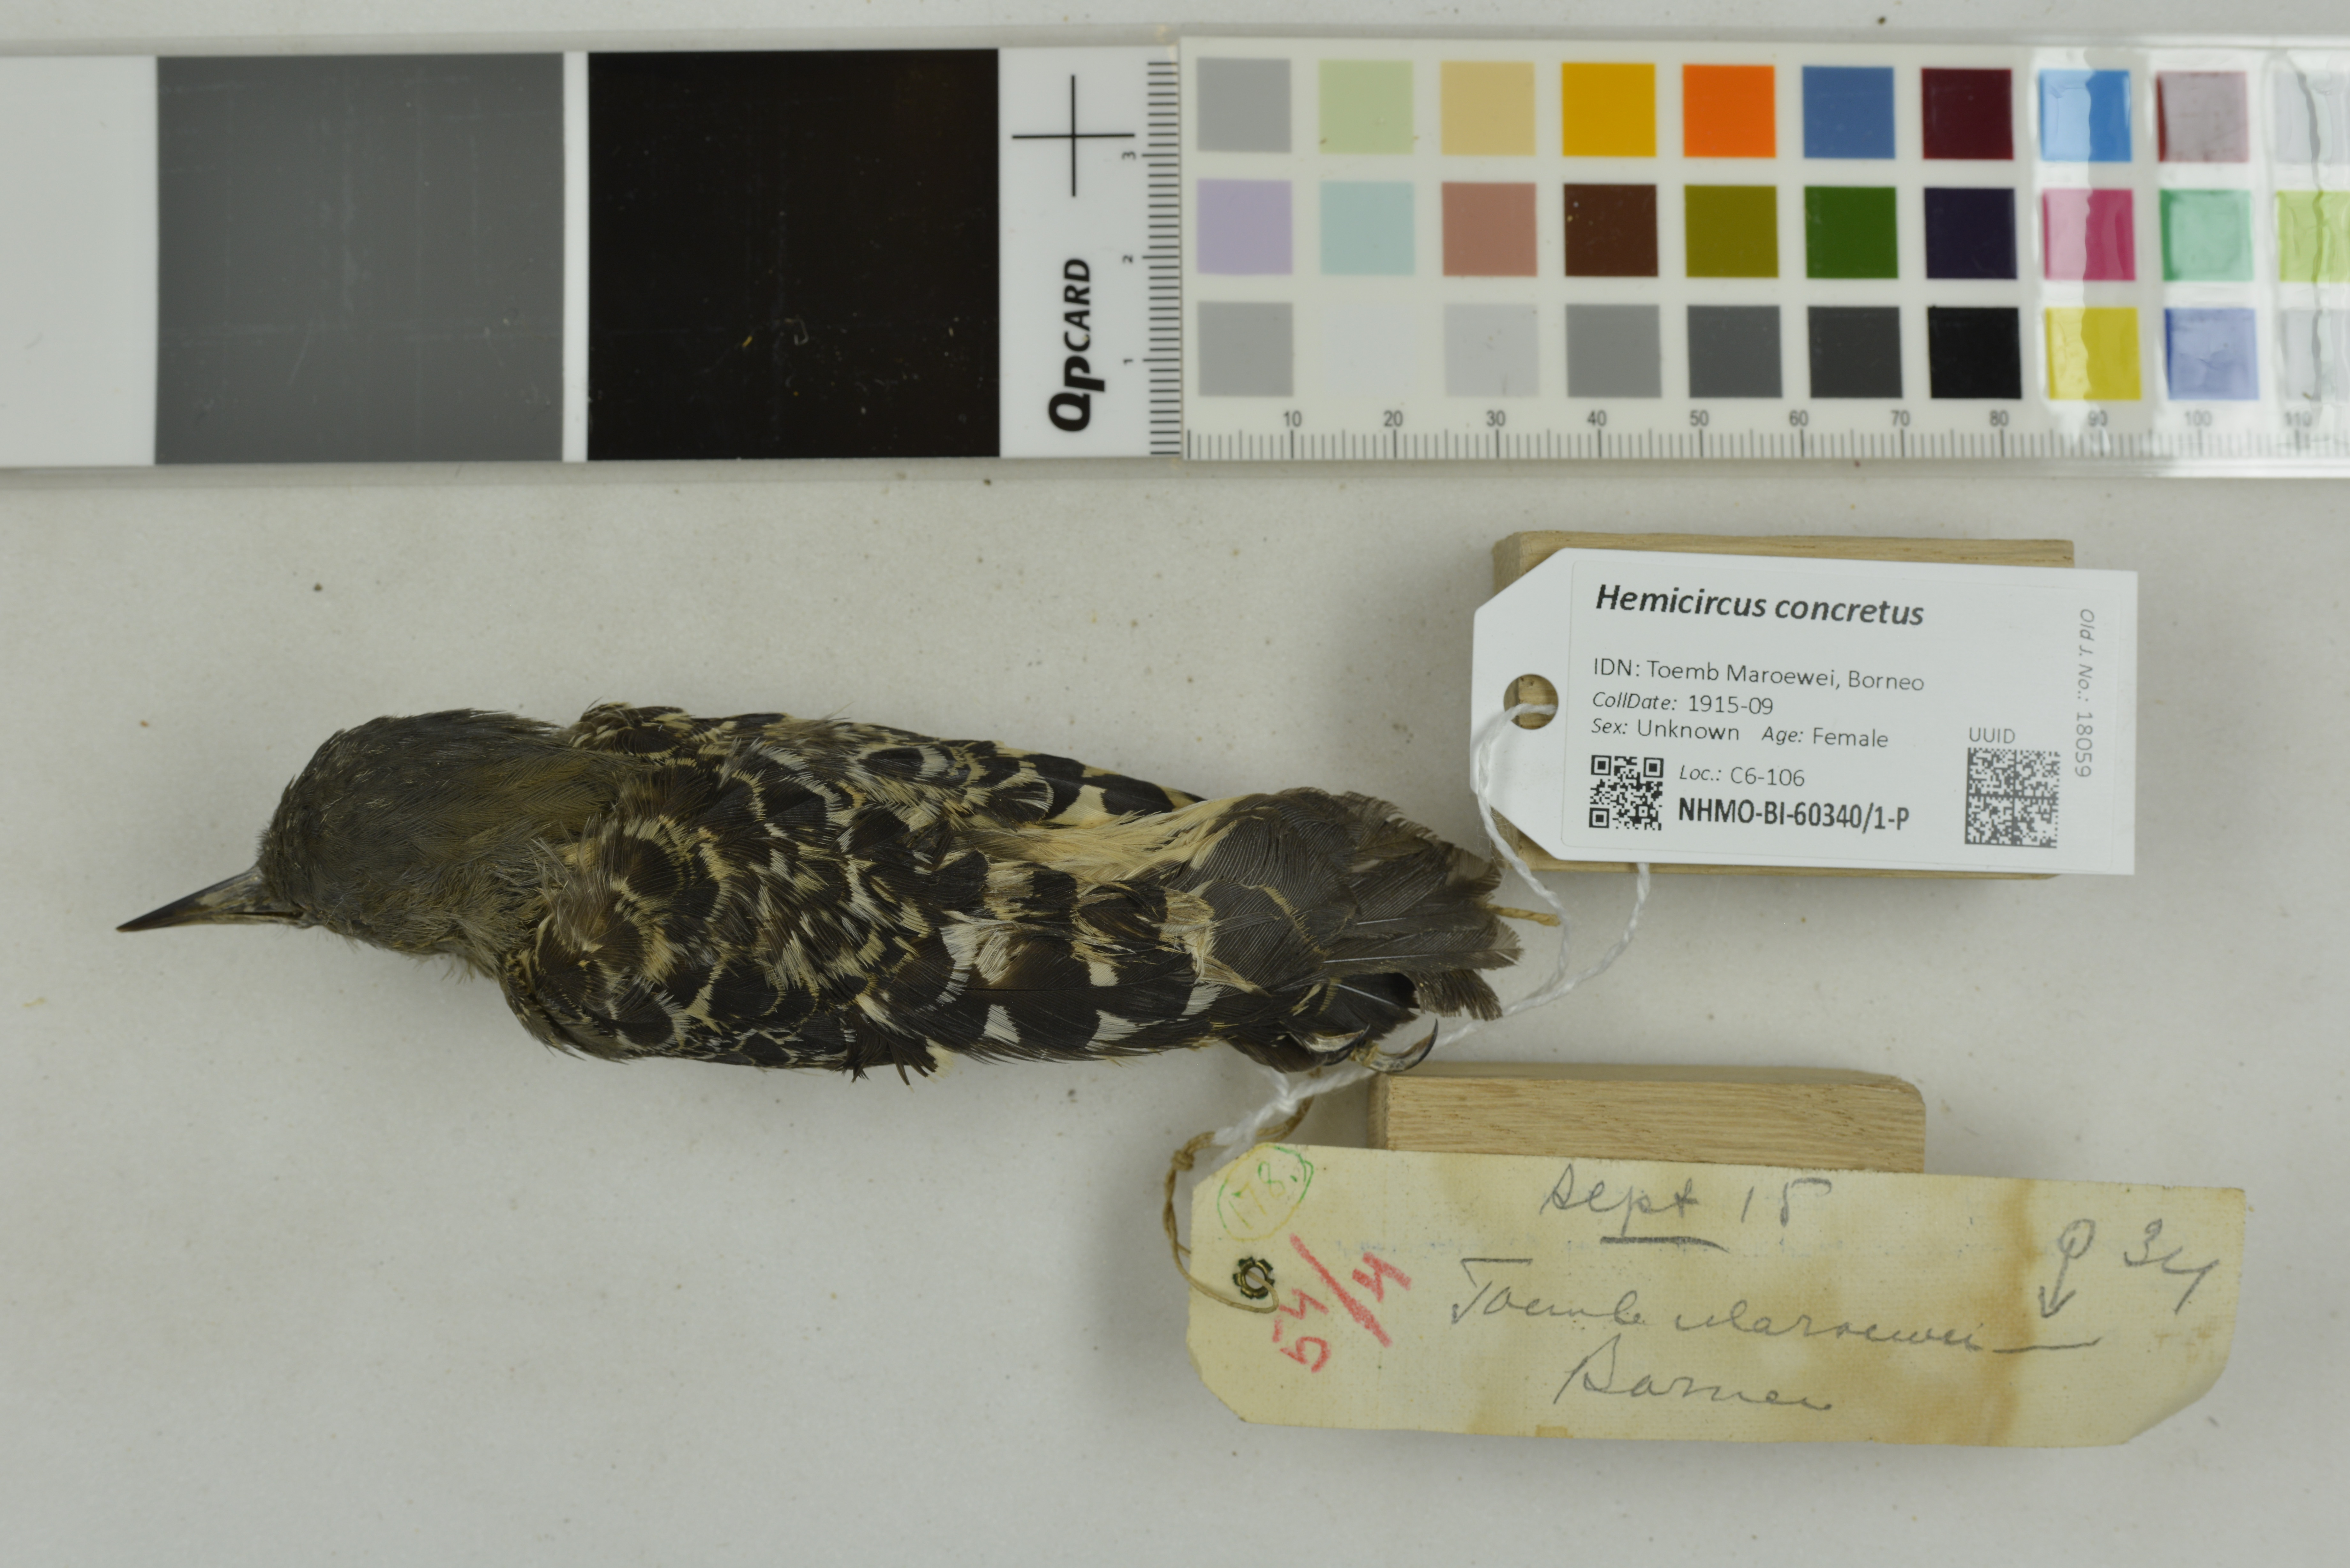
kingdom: Animalia
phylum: Chordata
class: Aves
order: Piciformes
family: Picidae
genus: Hemicircus
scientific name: Hemicircus concretus
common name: Grey-and-buff woodpecker
